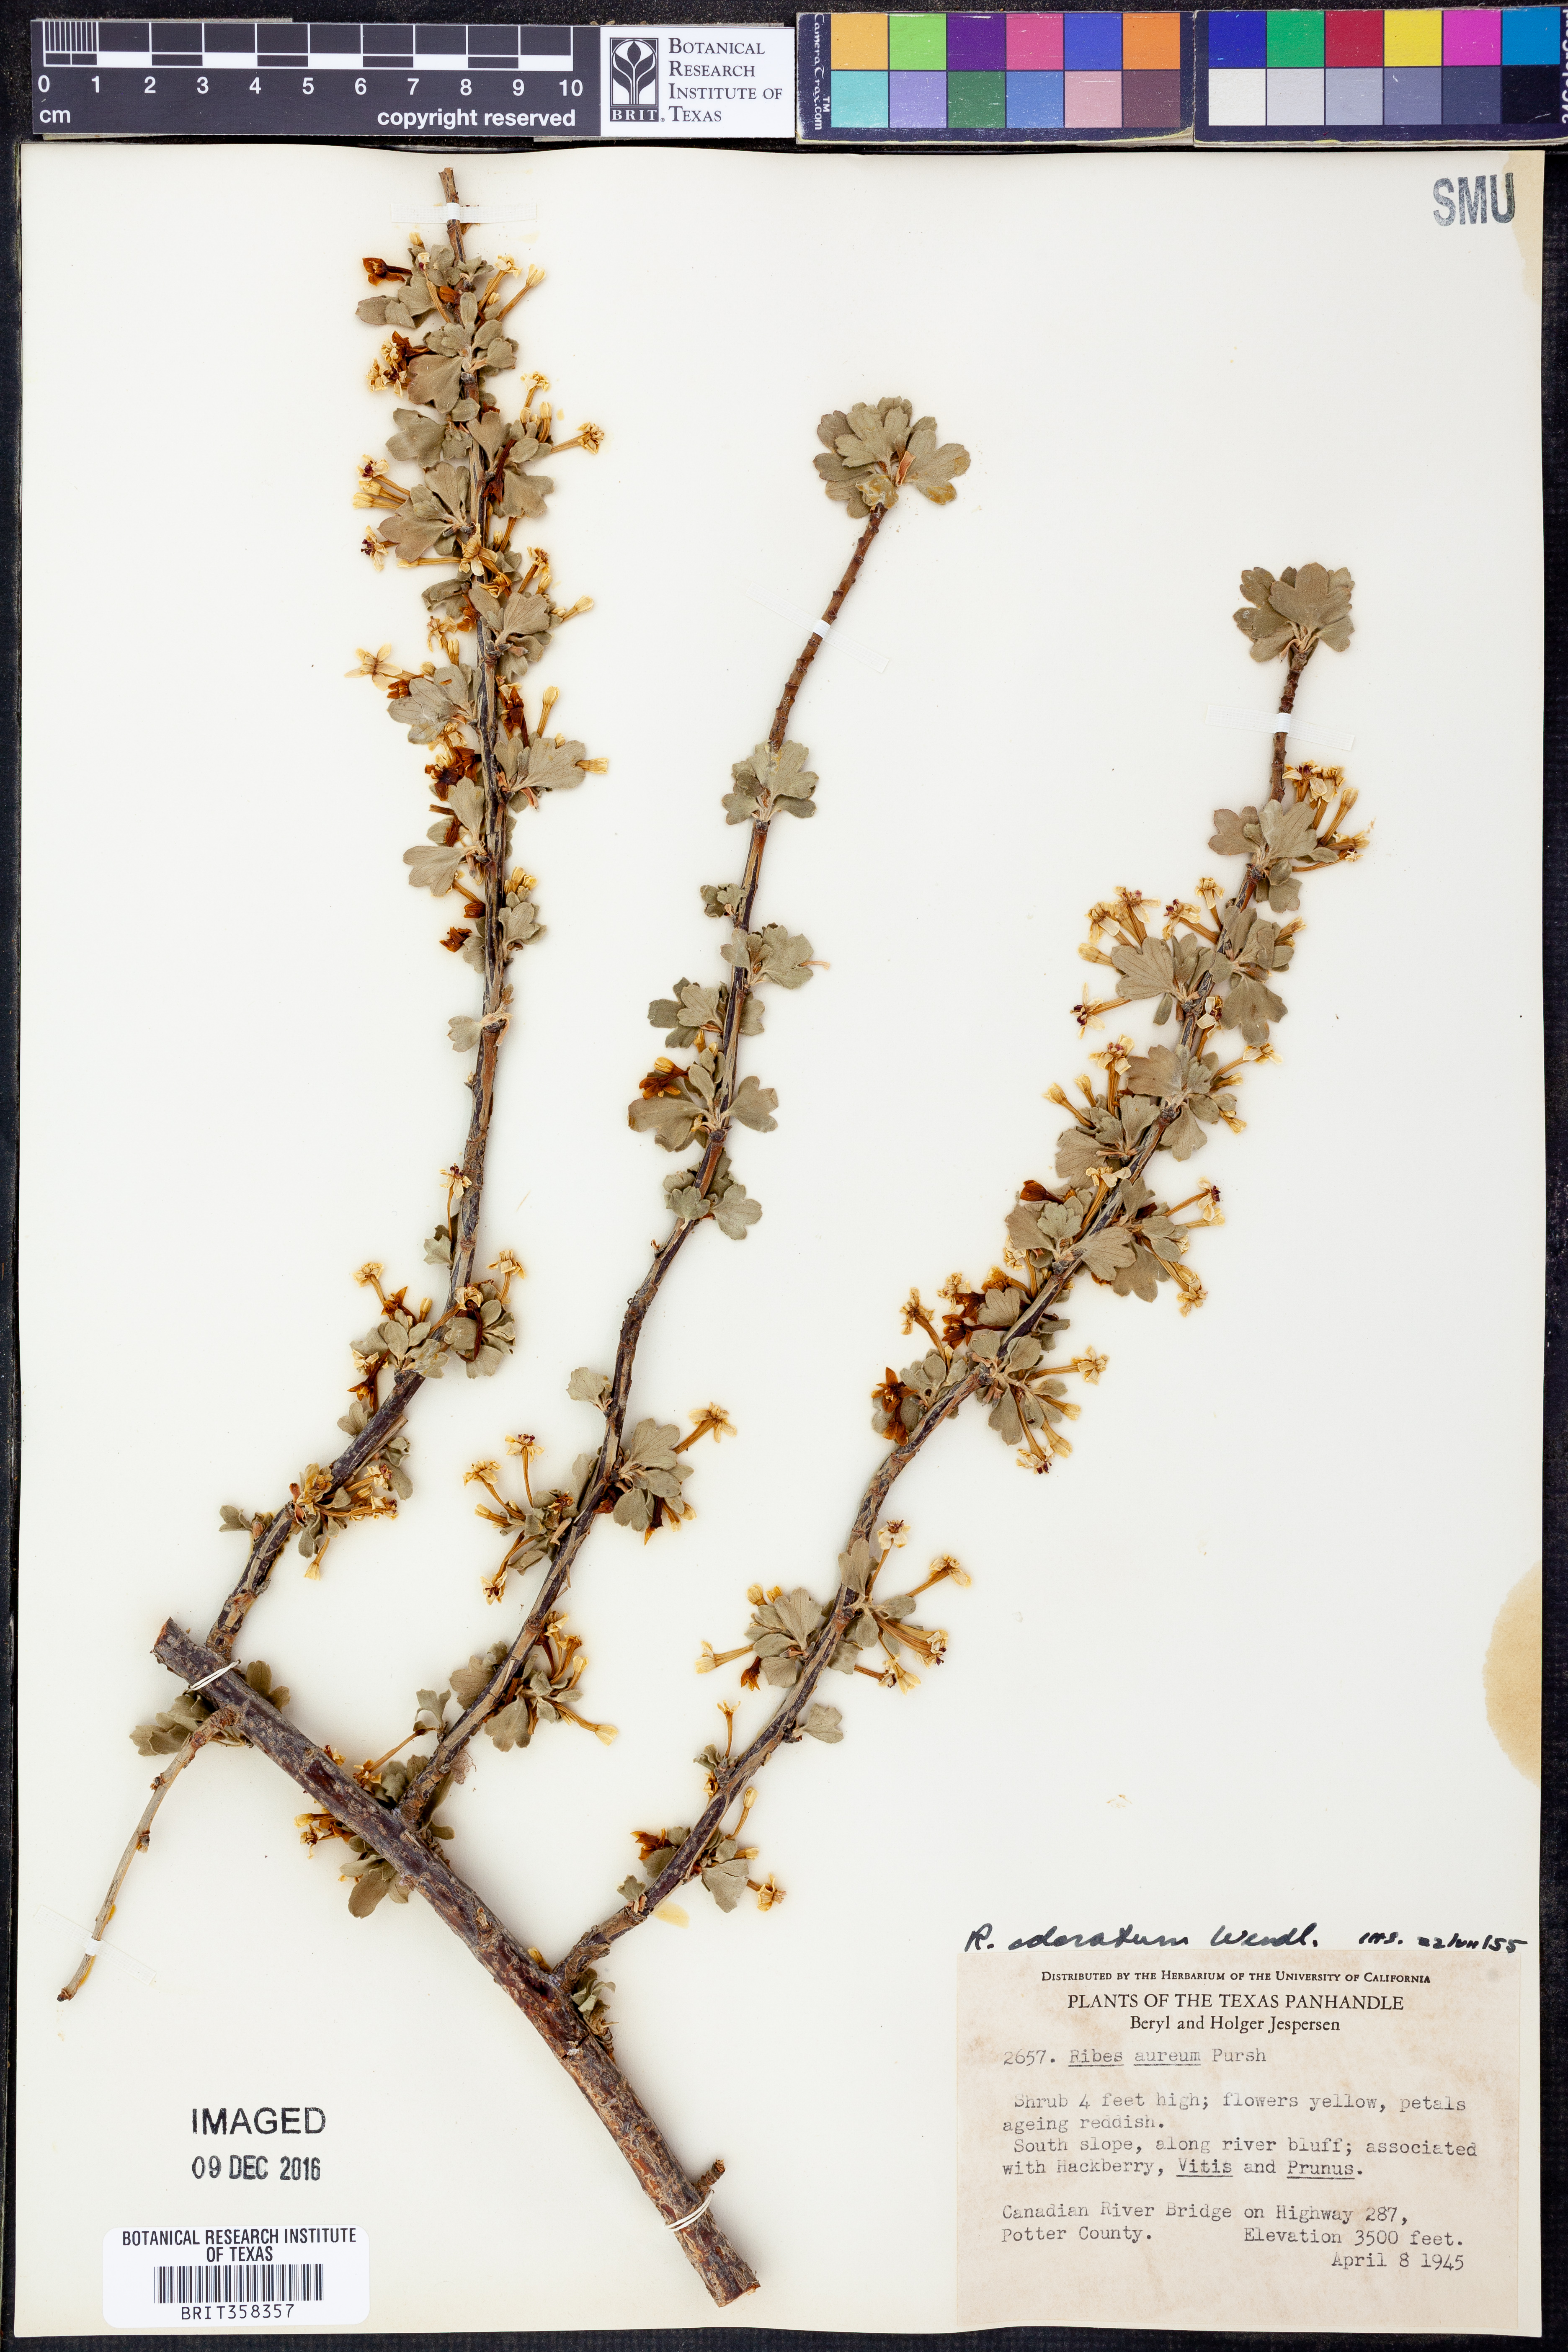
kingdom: Plantae
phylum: Tracheophyta
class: Magnoliopsida
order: Saxifragales
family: Grossulariaceae
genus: Ribes
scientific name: Ribes aureum
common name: Golden currant
